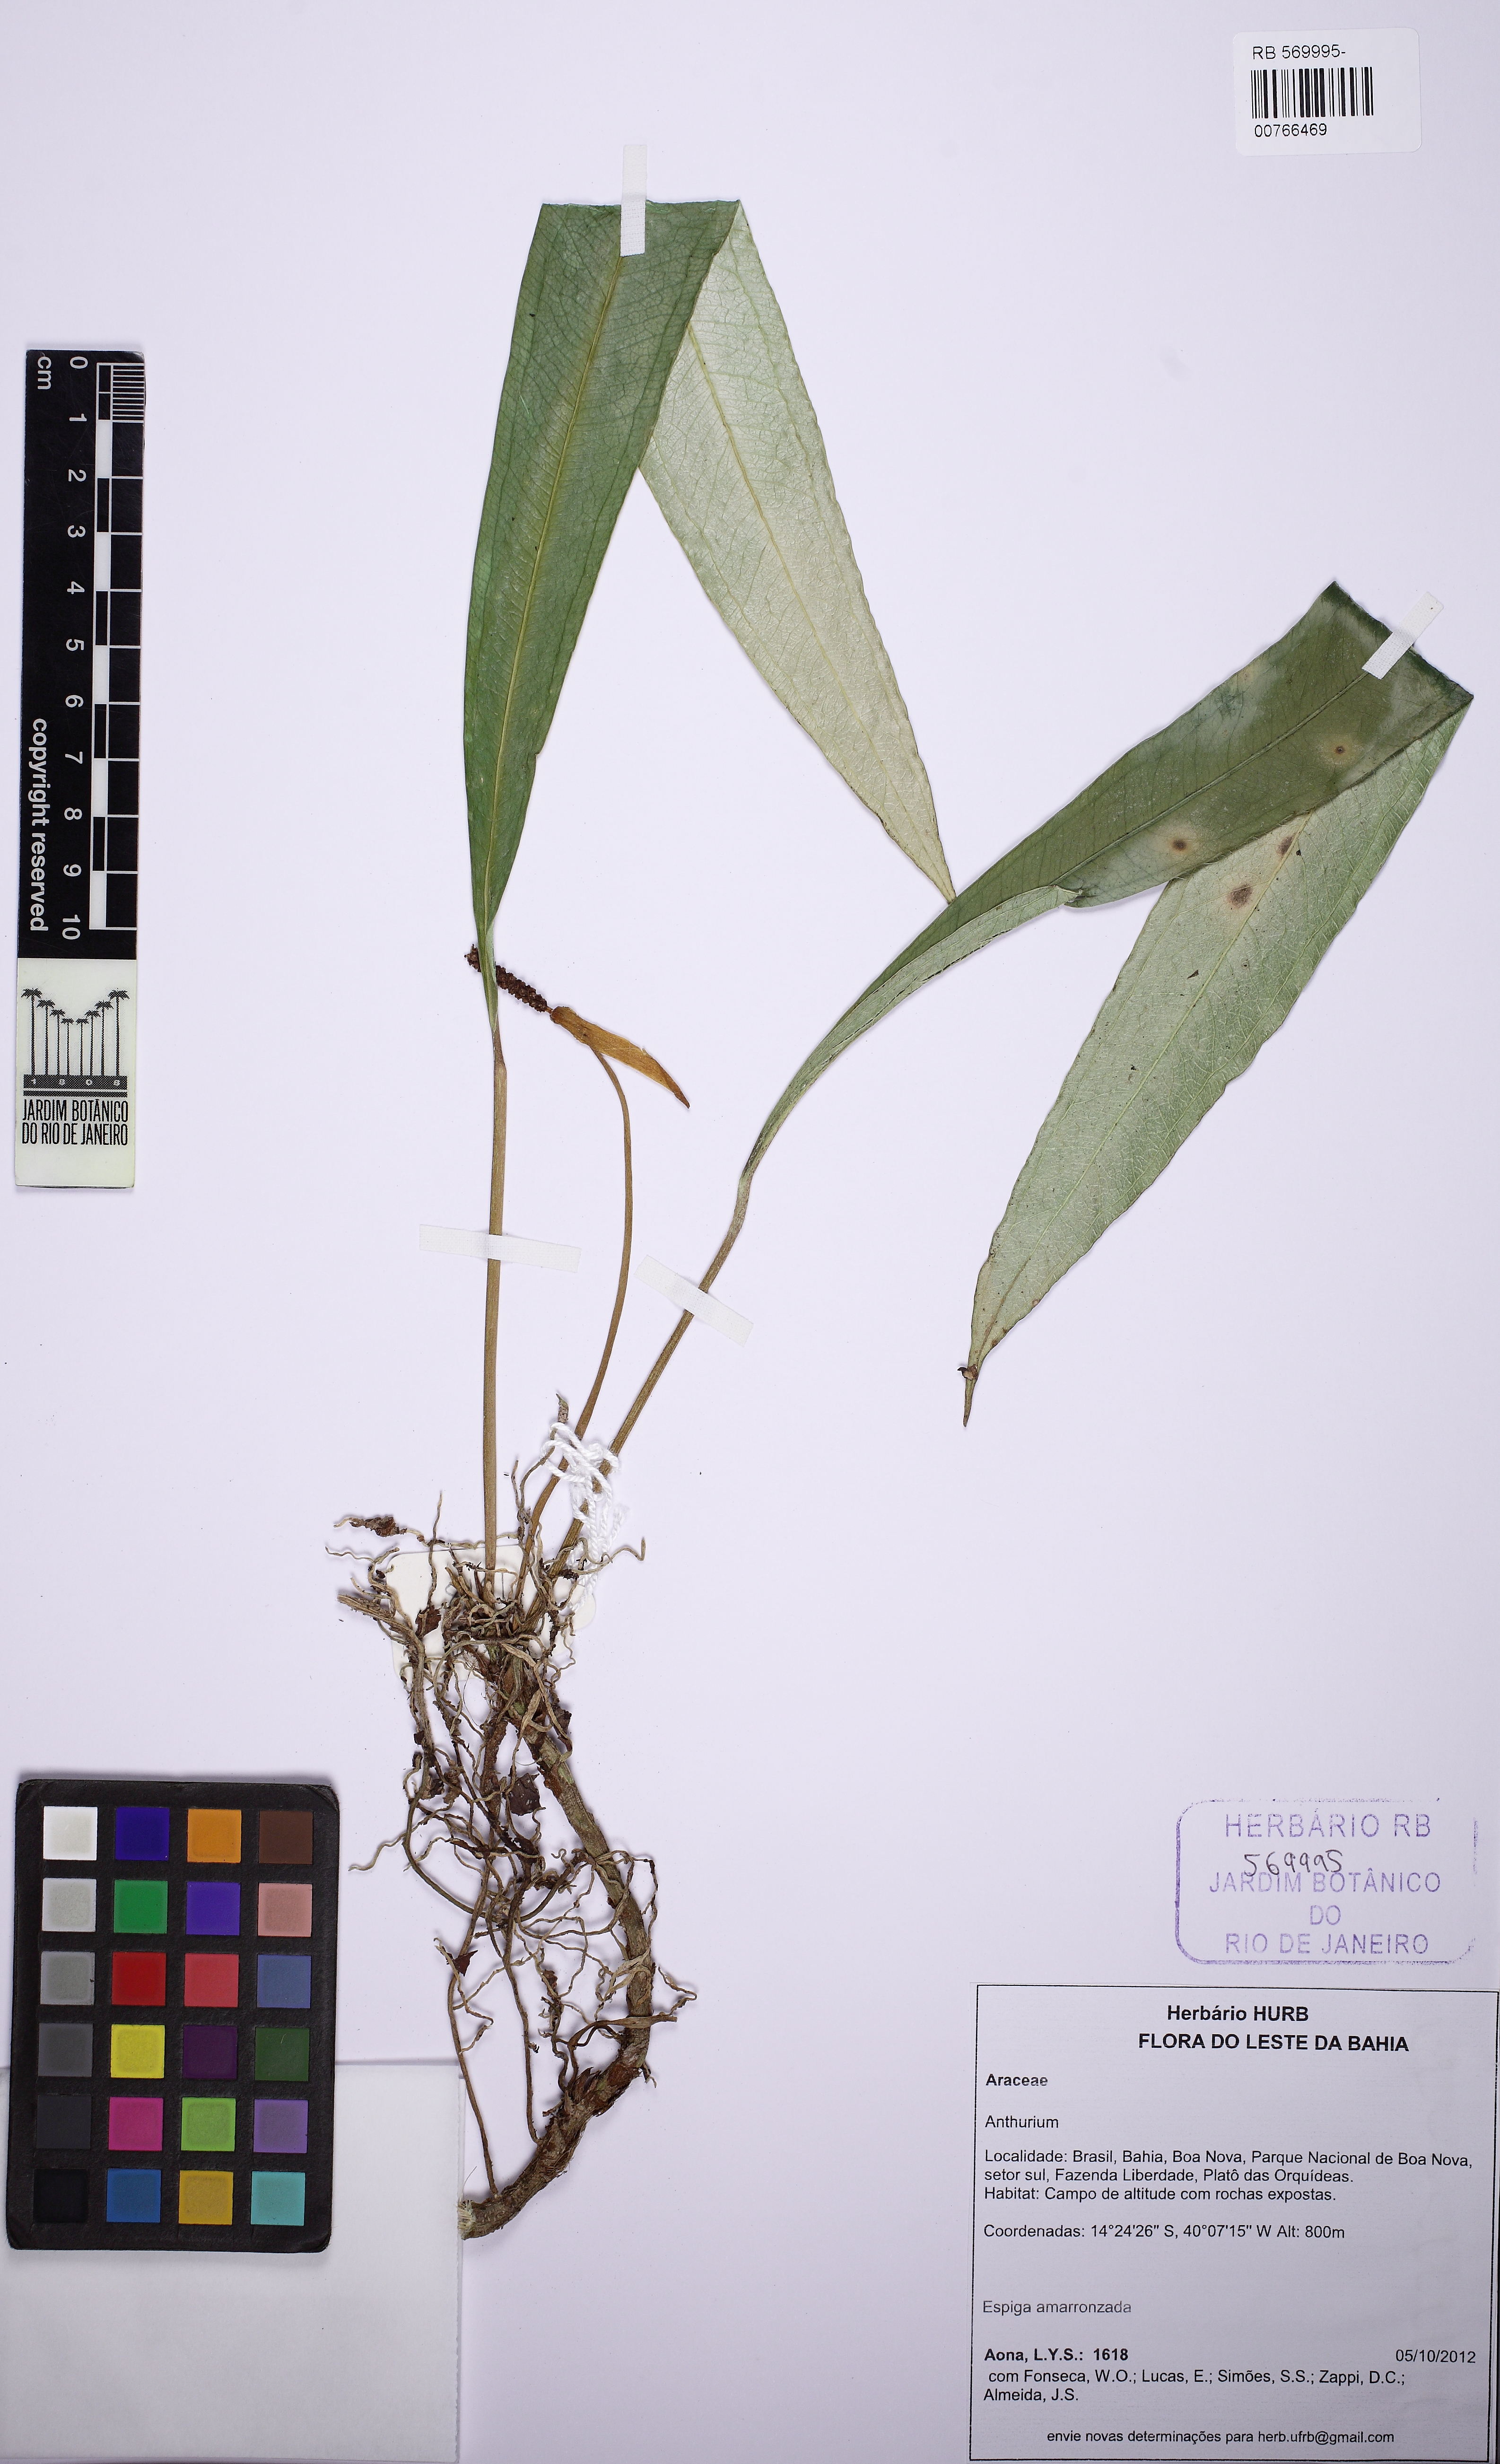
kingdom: Plantae
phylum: Tracheophyta
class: Liliopsida
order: Alismatales
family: Araceae
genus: Anthurium
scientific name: Anthurium
